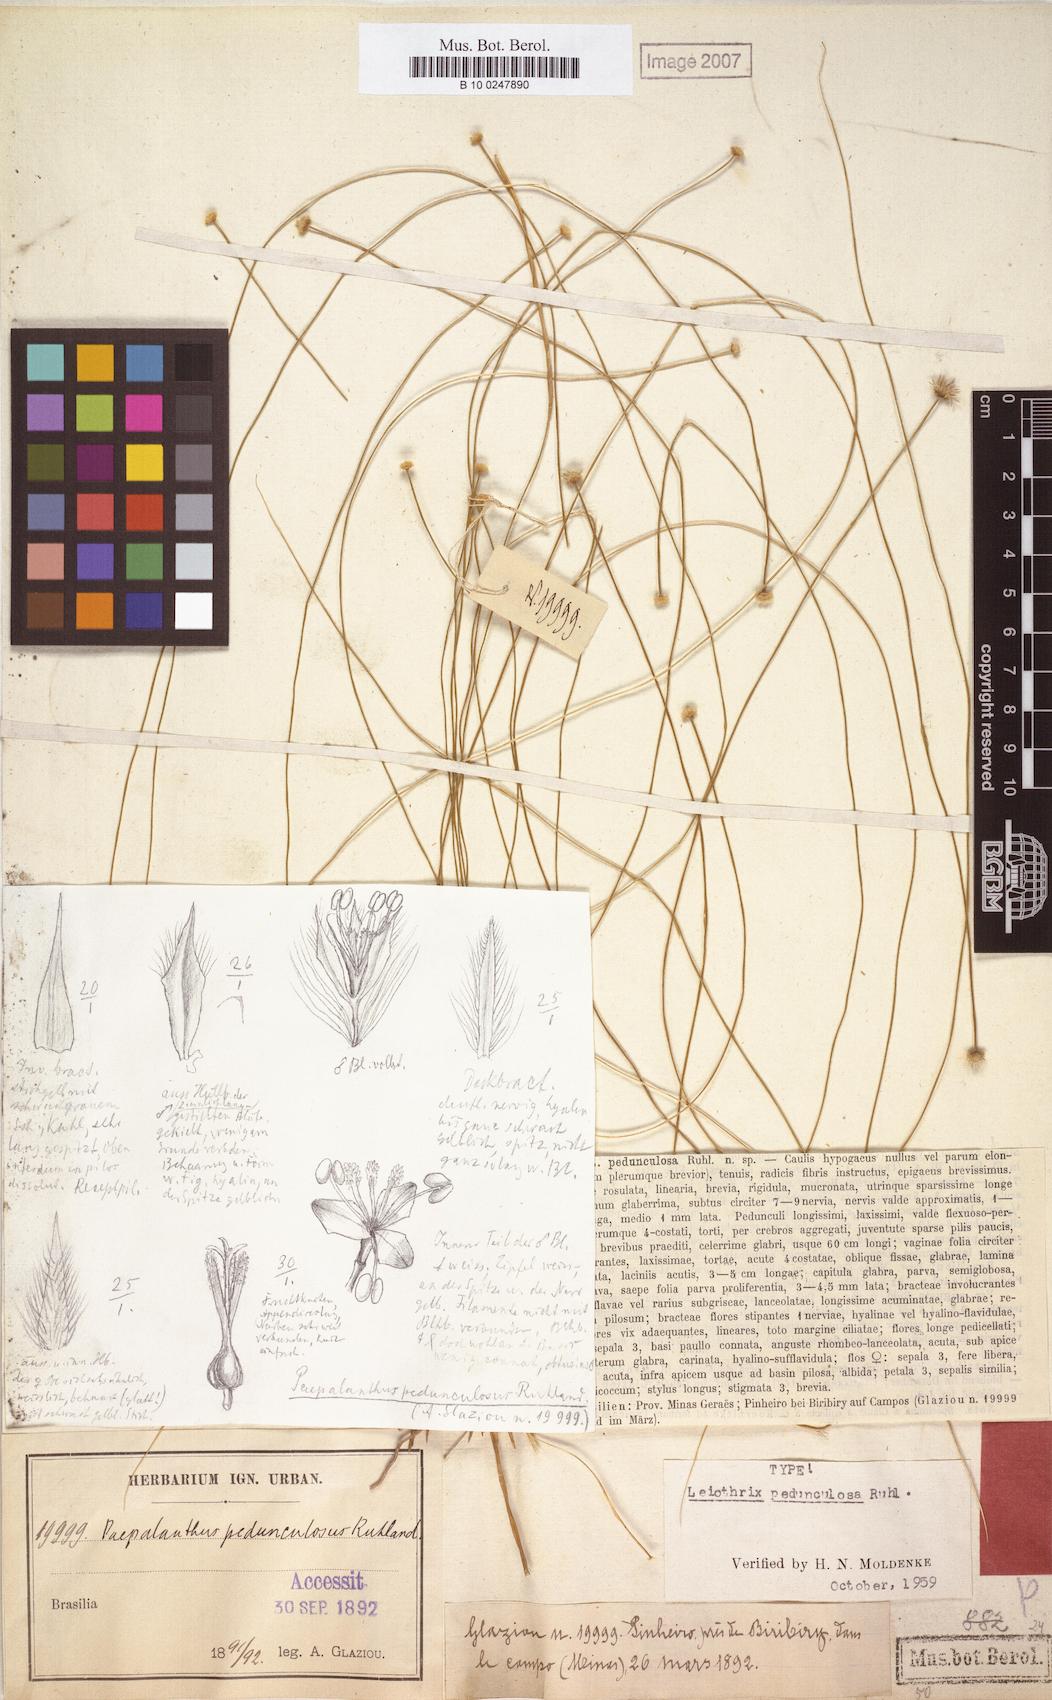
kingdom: Plantae
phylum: Tracheophyta
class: Liliopsida
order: Poales
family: Eriocaulaceae
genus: Leiothrix
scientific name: Leiothrix flagellaris
